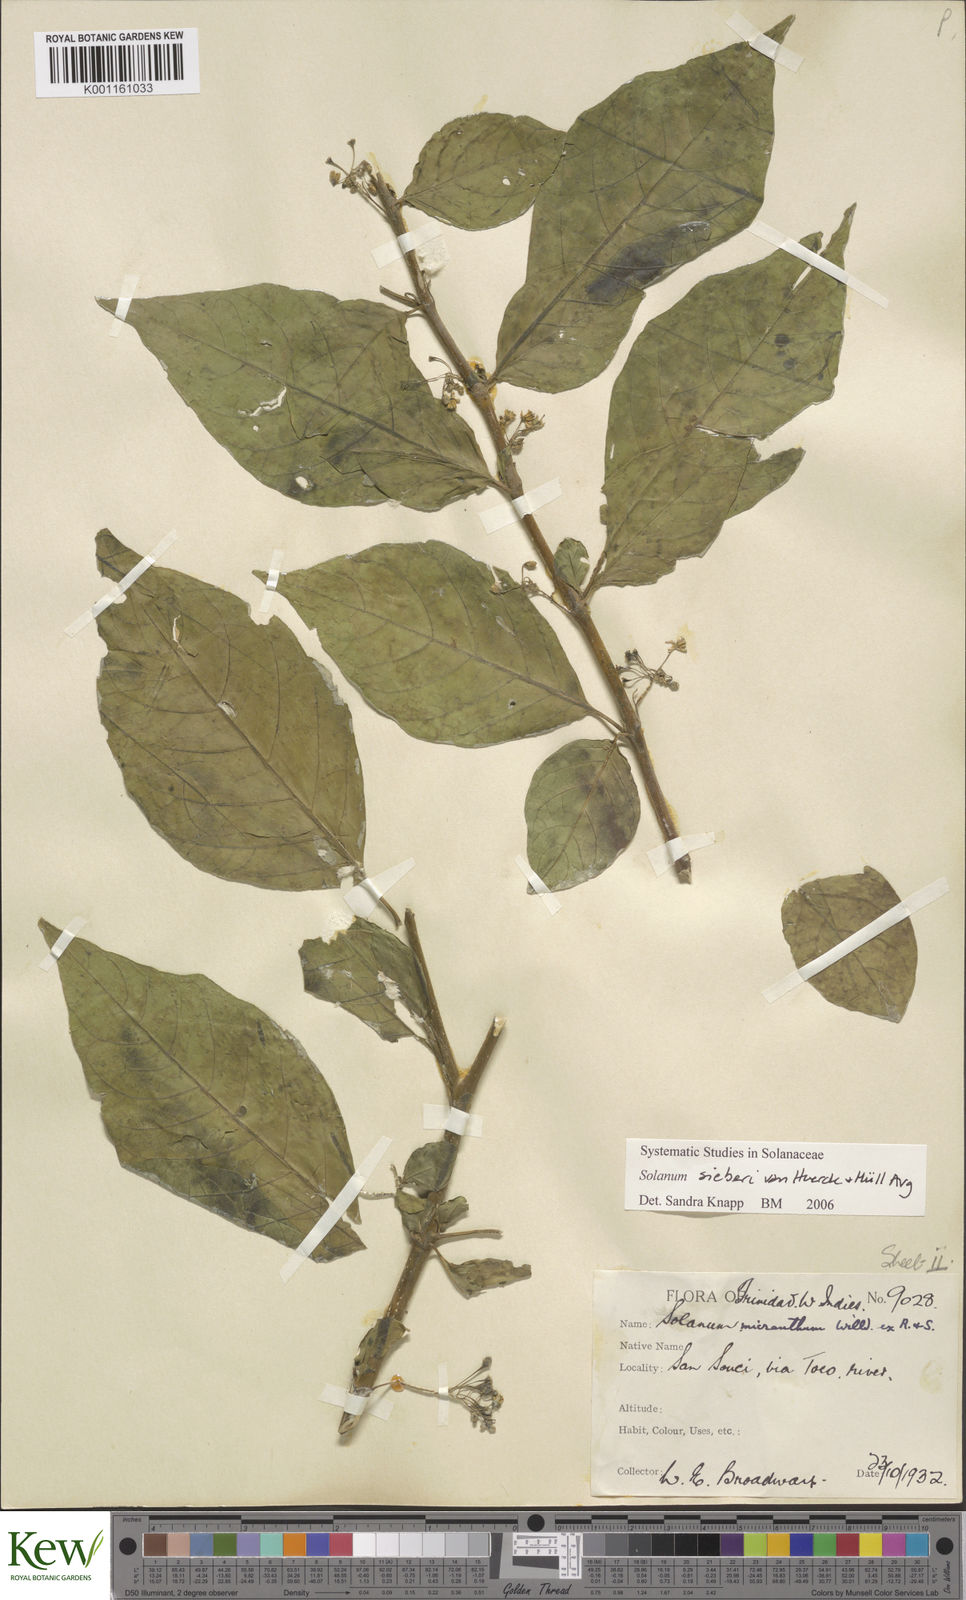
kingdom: Plantae
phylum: Tracheophyta
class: Magnoliopsida
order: Solanales
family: Solanaceae
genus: Solanum
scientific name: Solanum nudum
